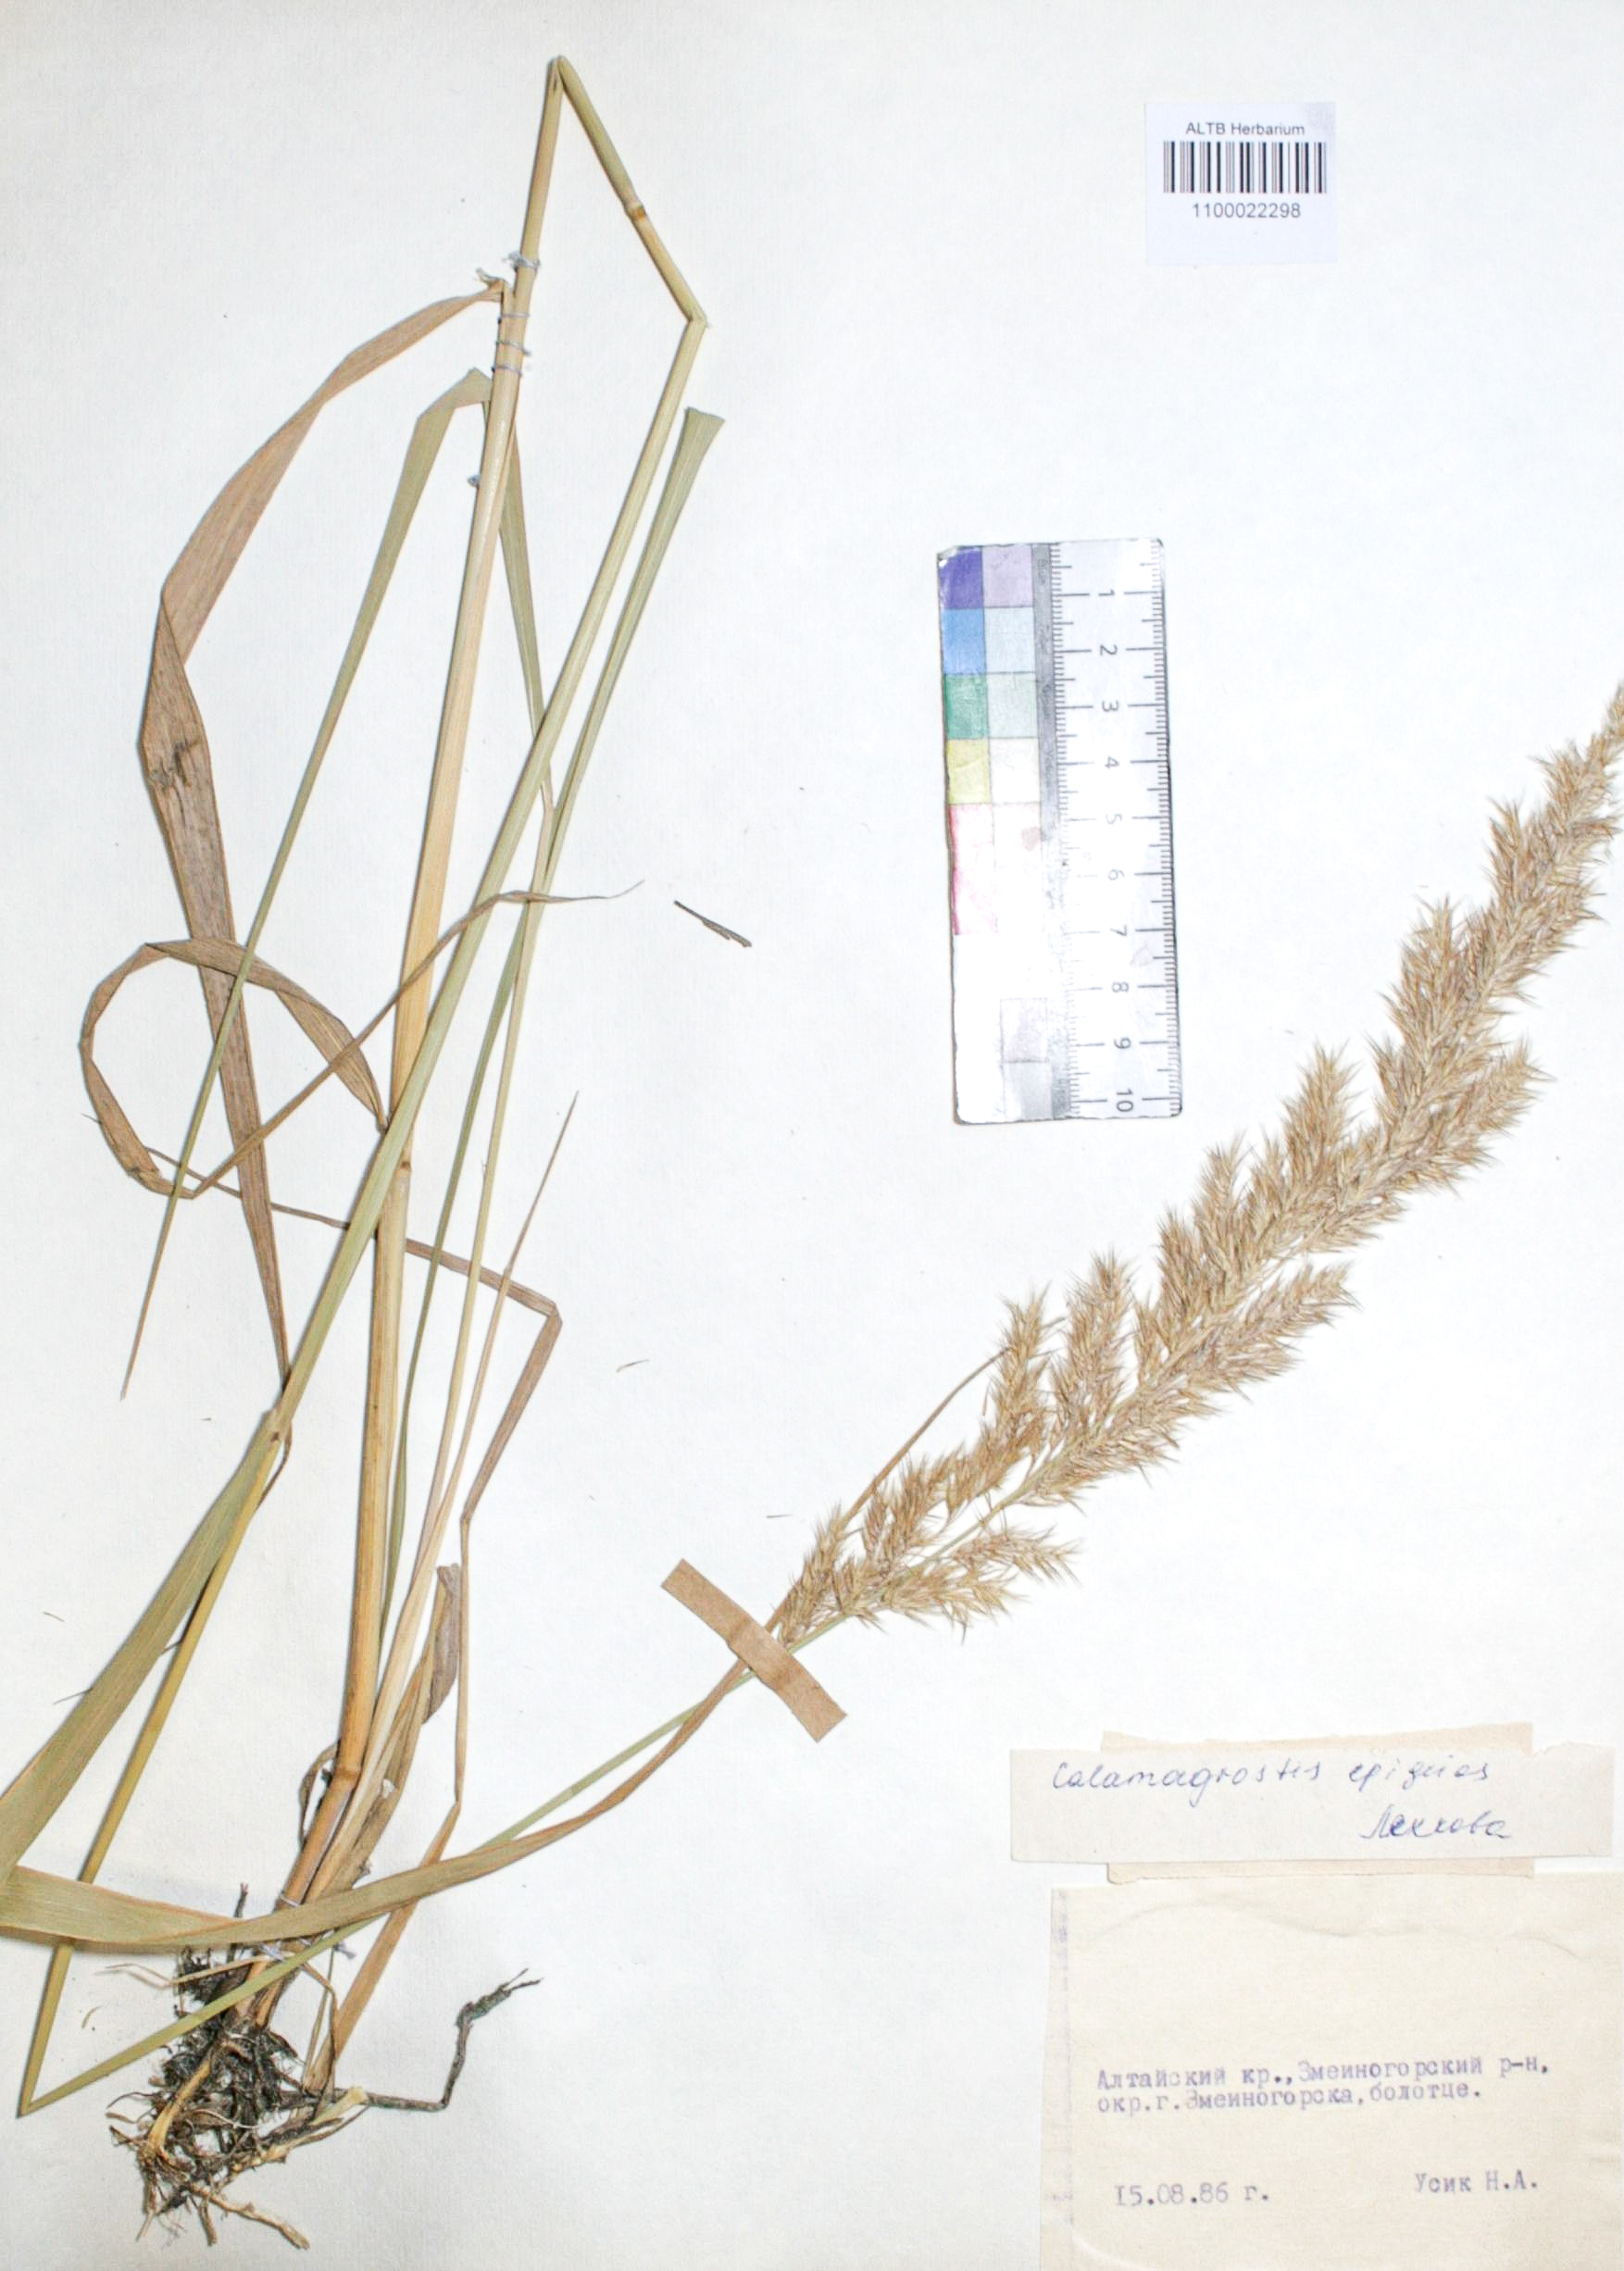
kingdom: Plantae
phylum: Tracheophyta
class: Liliopsida
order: Poales
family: Poaceae
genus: Calamagrostis
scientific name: Calamagrostis epigejos
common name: Wood small-reed
